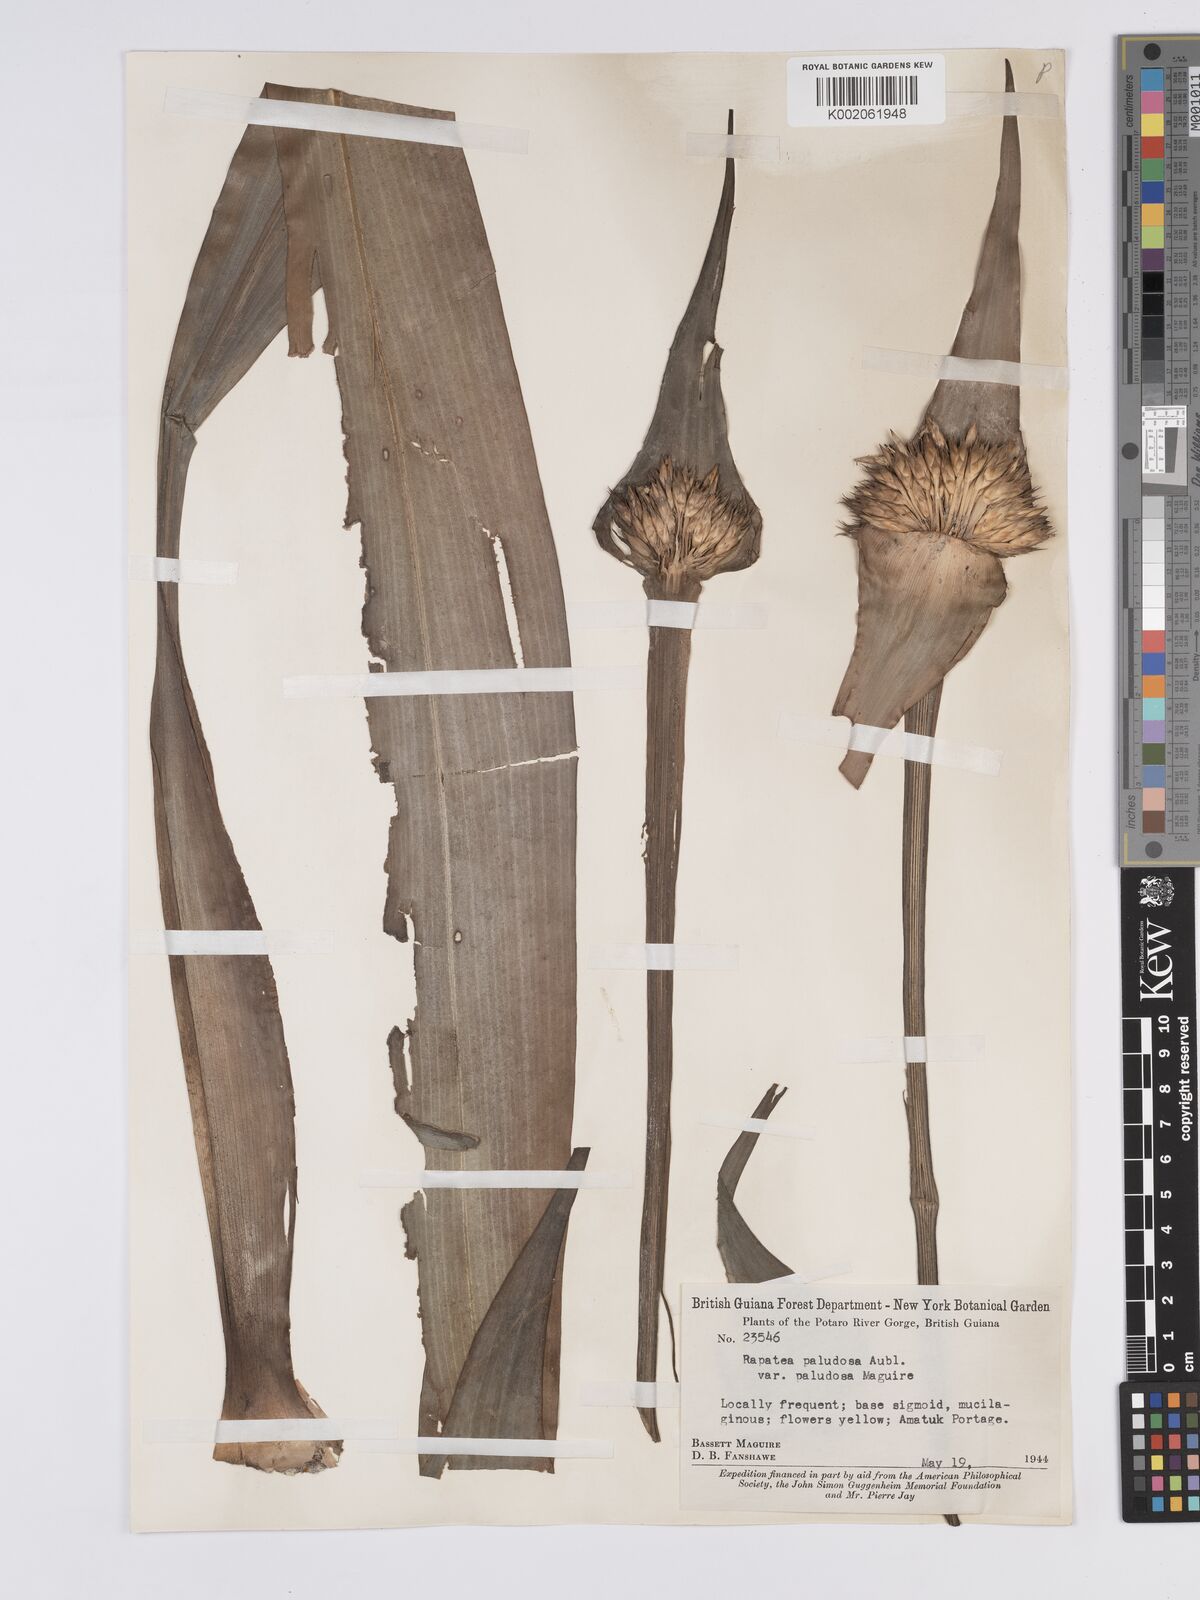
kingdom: Plantae
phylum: Tracheophyta
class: Liliopsida
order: Poales
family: Rapateaceae
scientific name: Rapateaceae
